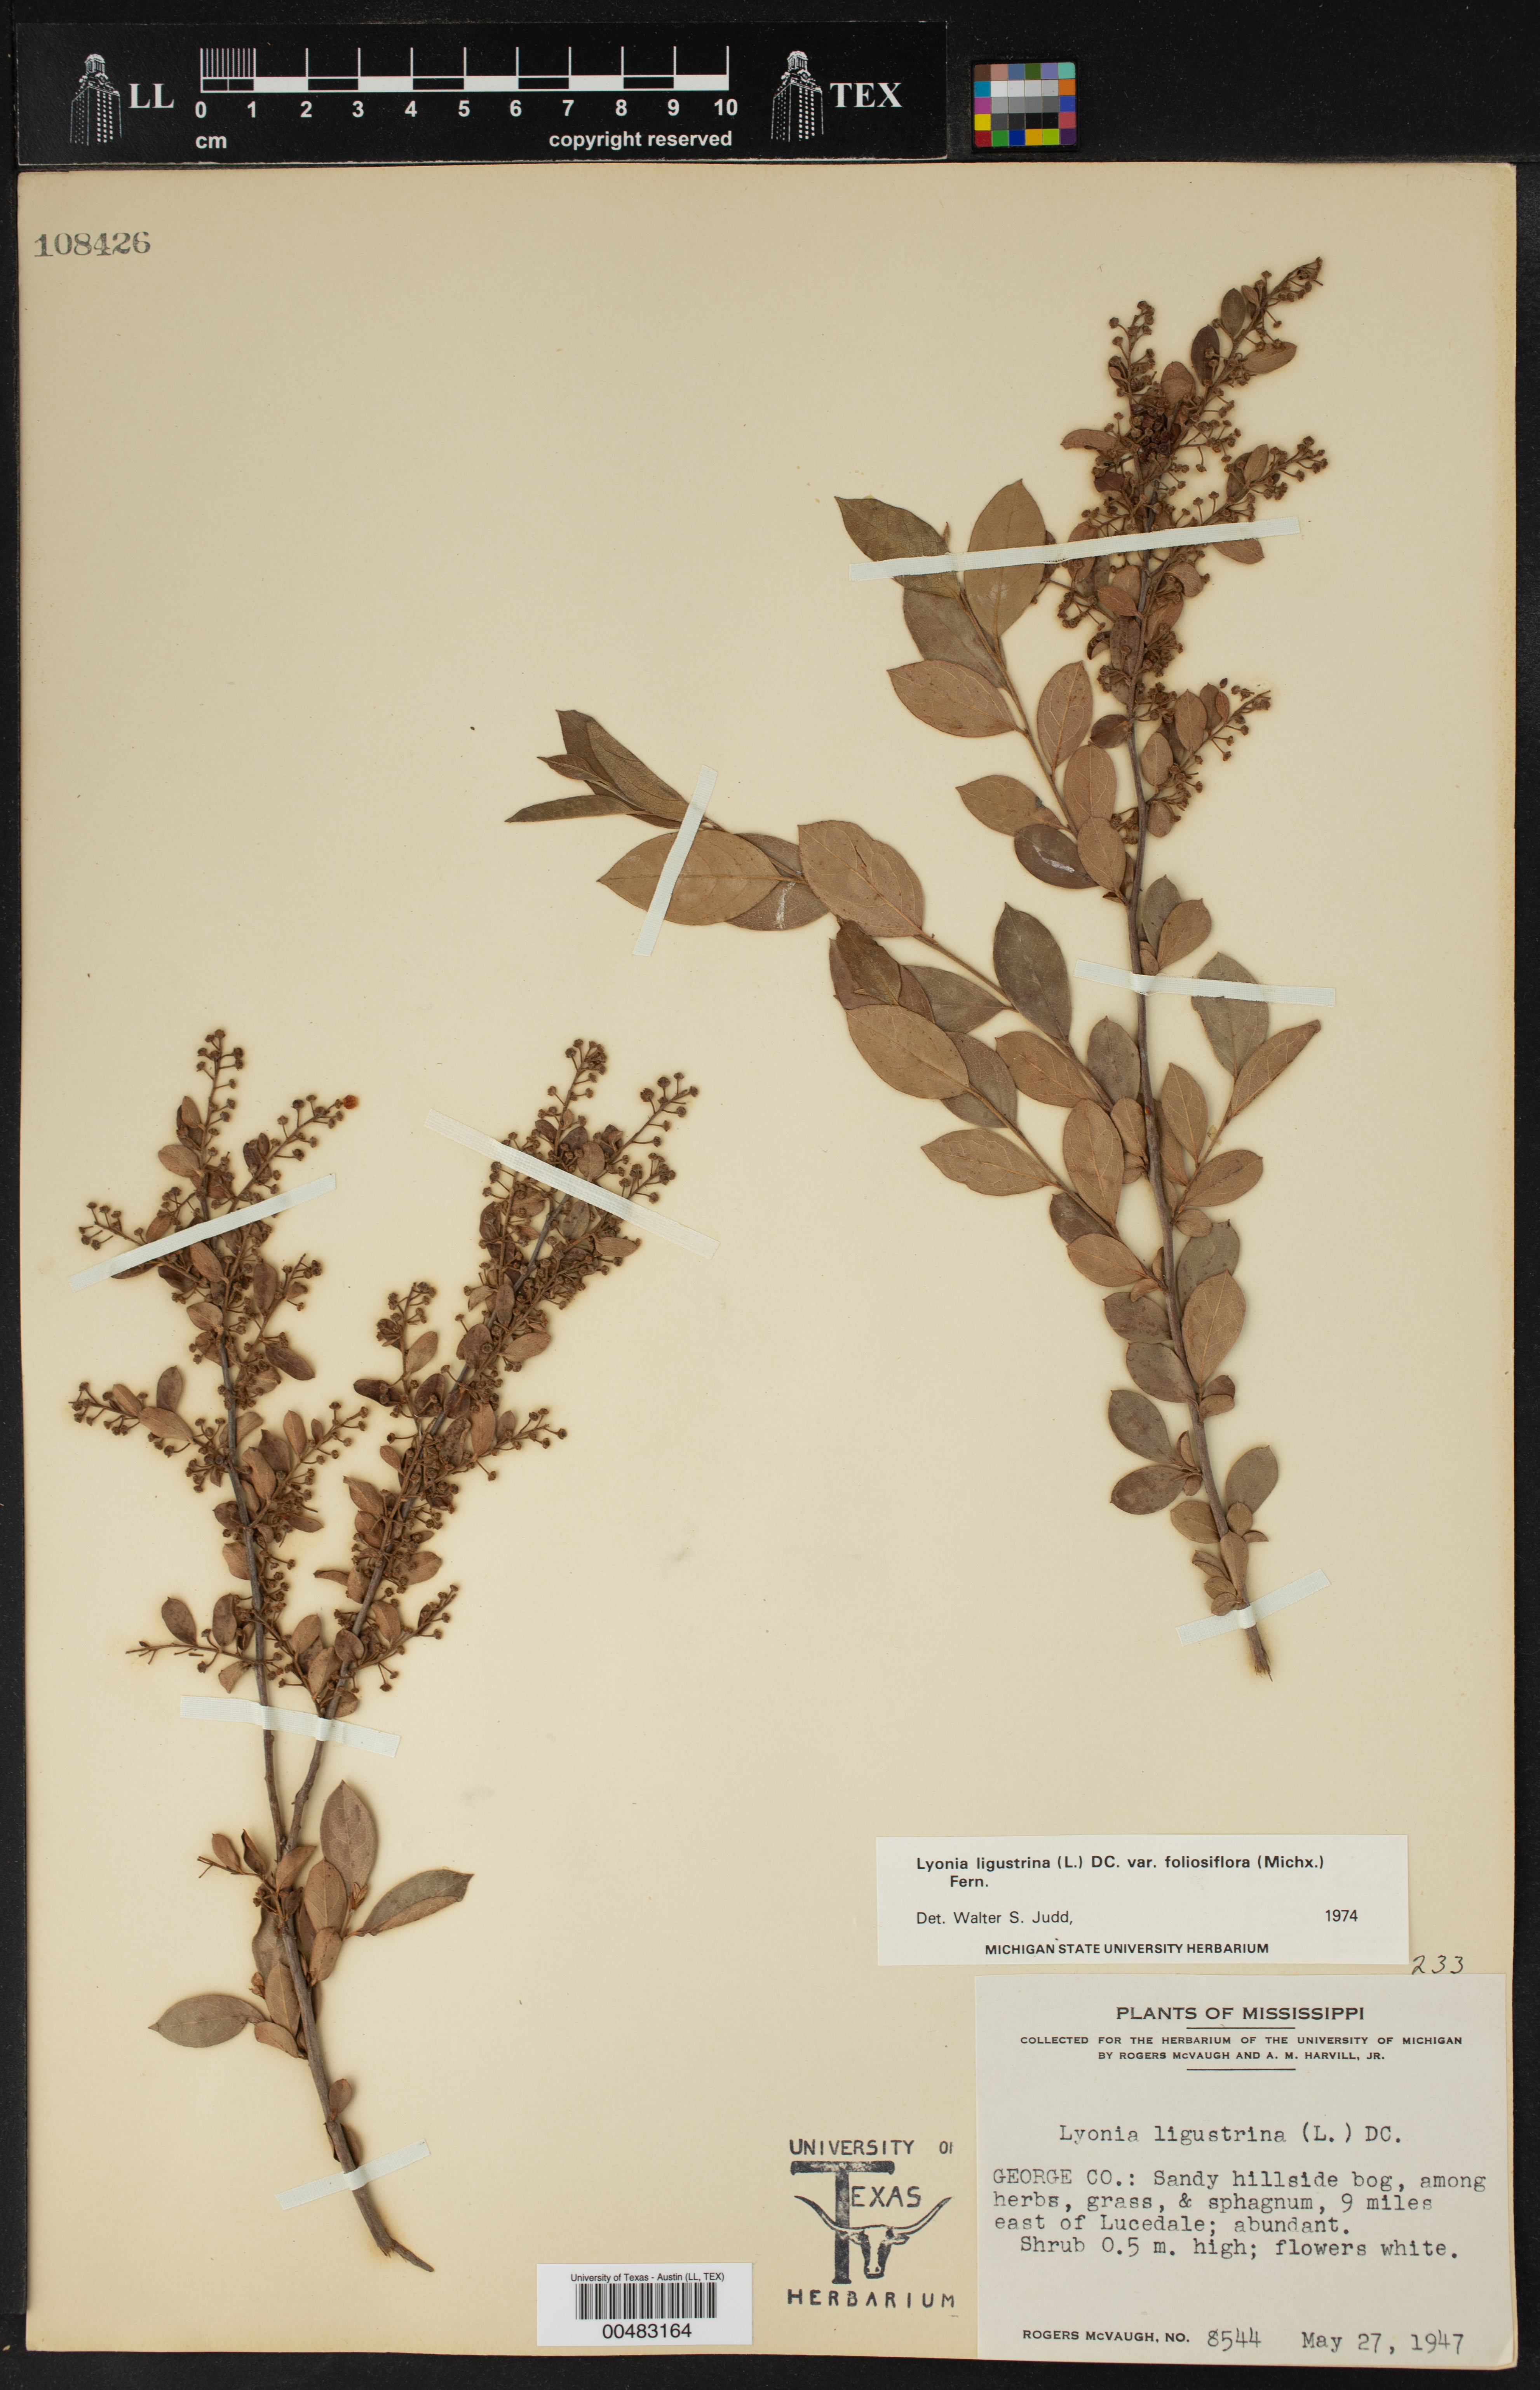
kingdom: Plantae
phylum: Tracheophyta
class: Magnoliopsida
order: Ericales
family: Ericaceae
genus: Lyonia
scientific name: Lyonia ligustrina
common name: Maleberry
